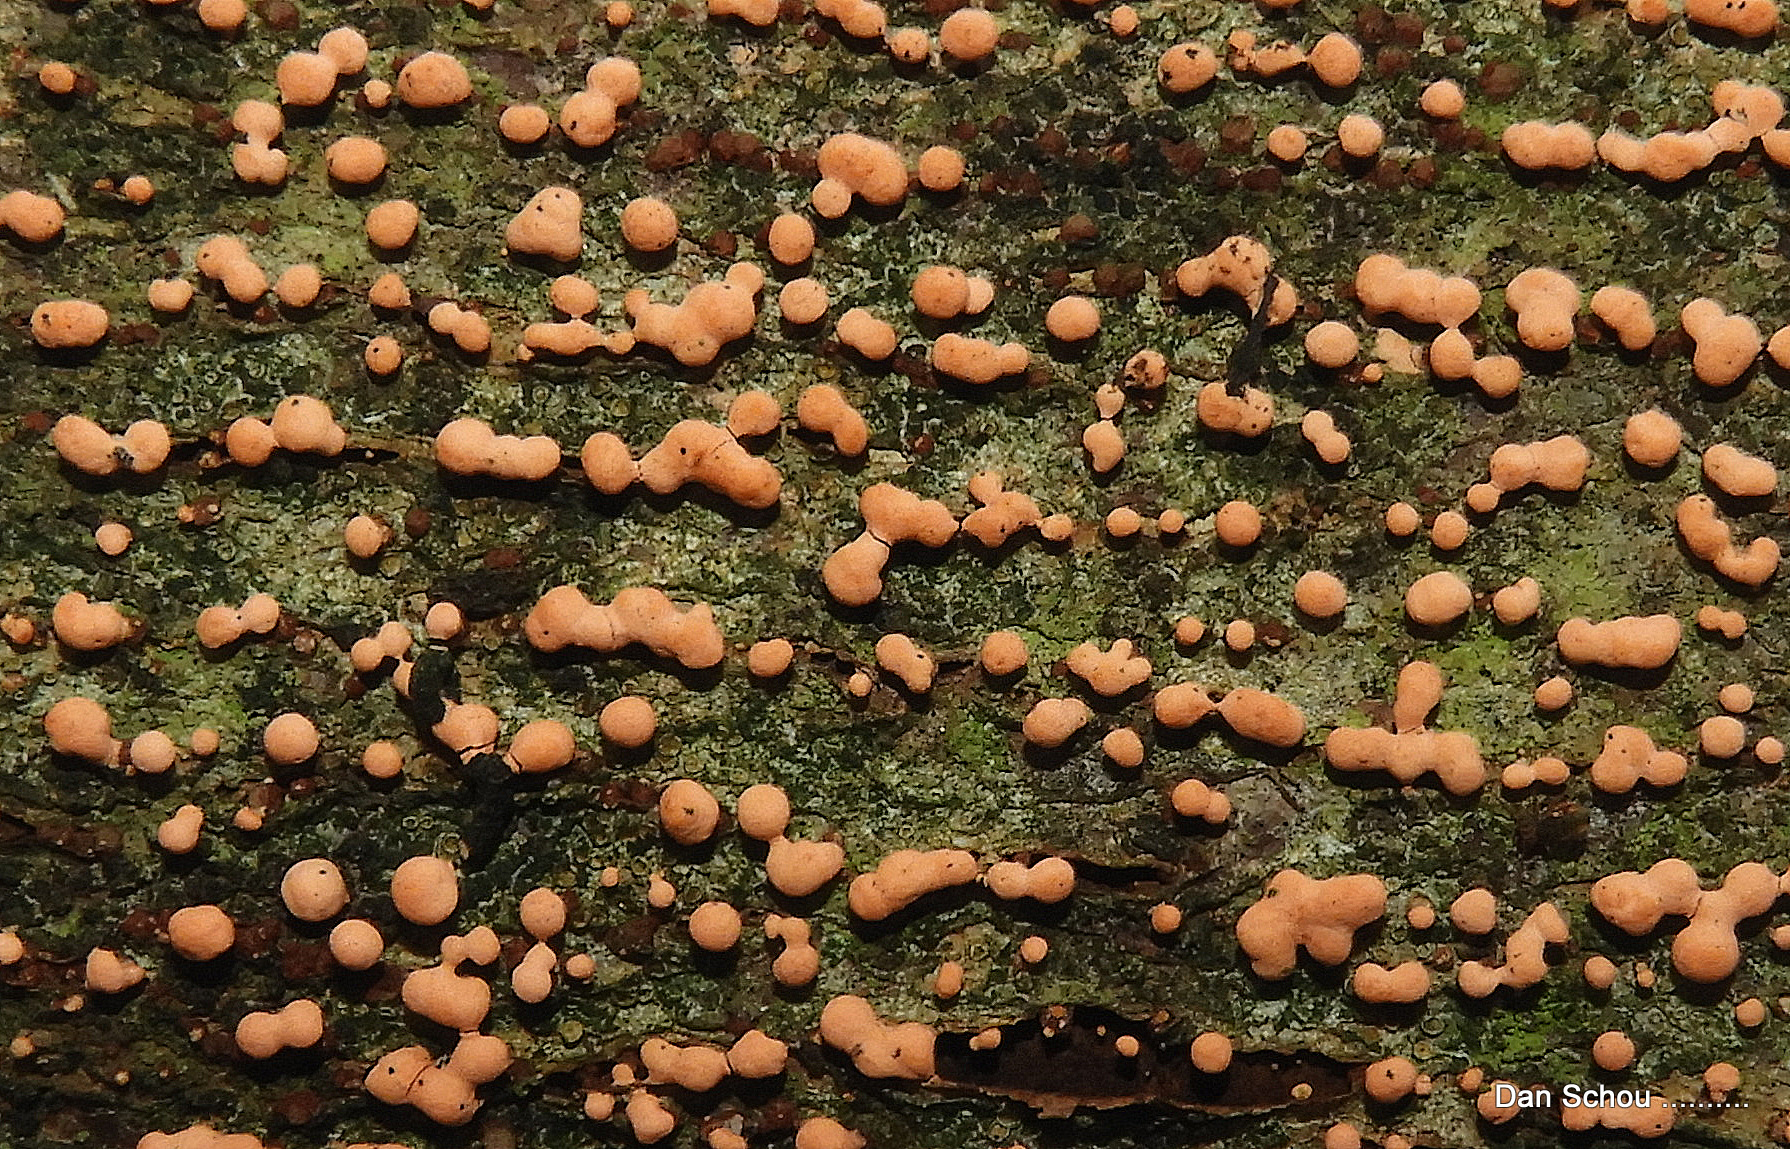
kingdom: Fungi
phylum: Ascomycota
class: Sordariomycetes
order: Hypocreales
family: Nectriaceae
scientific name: Nectriaceae
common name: cinnobersvampfamilien
